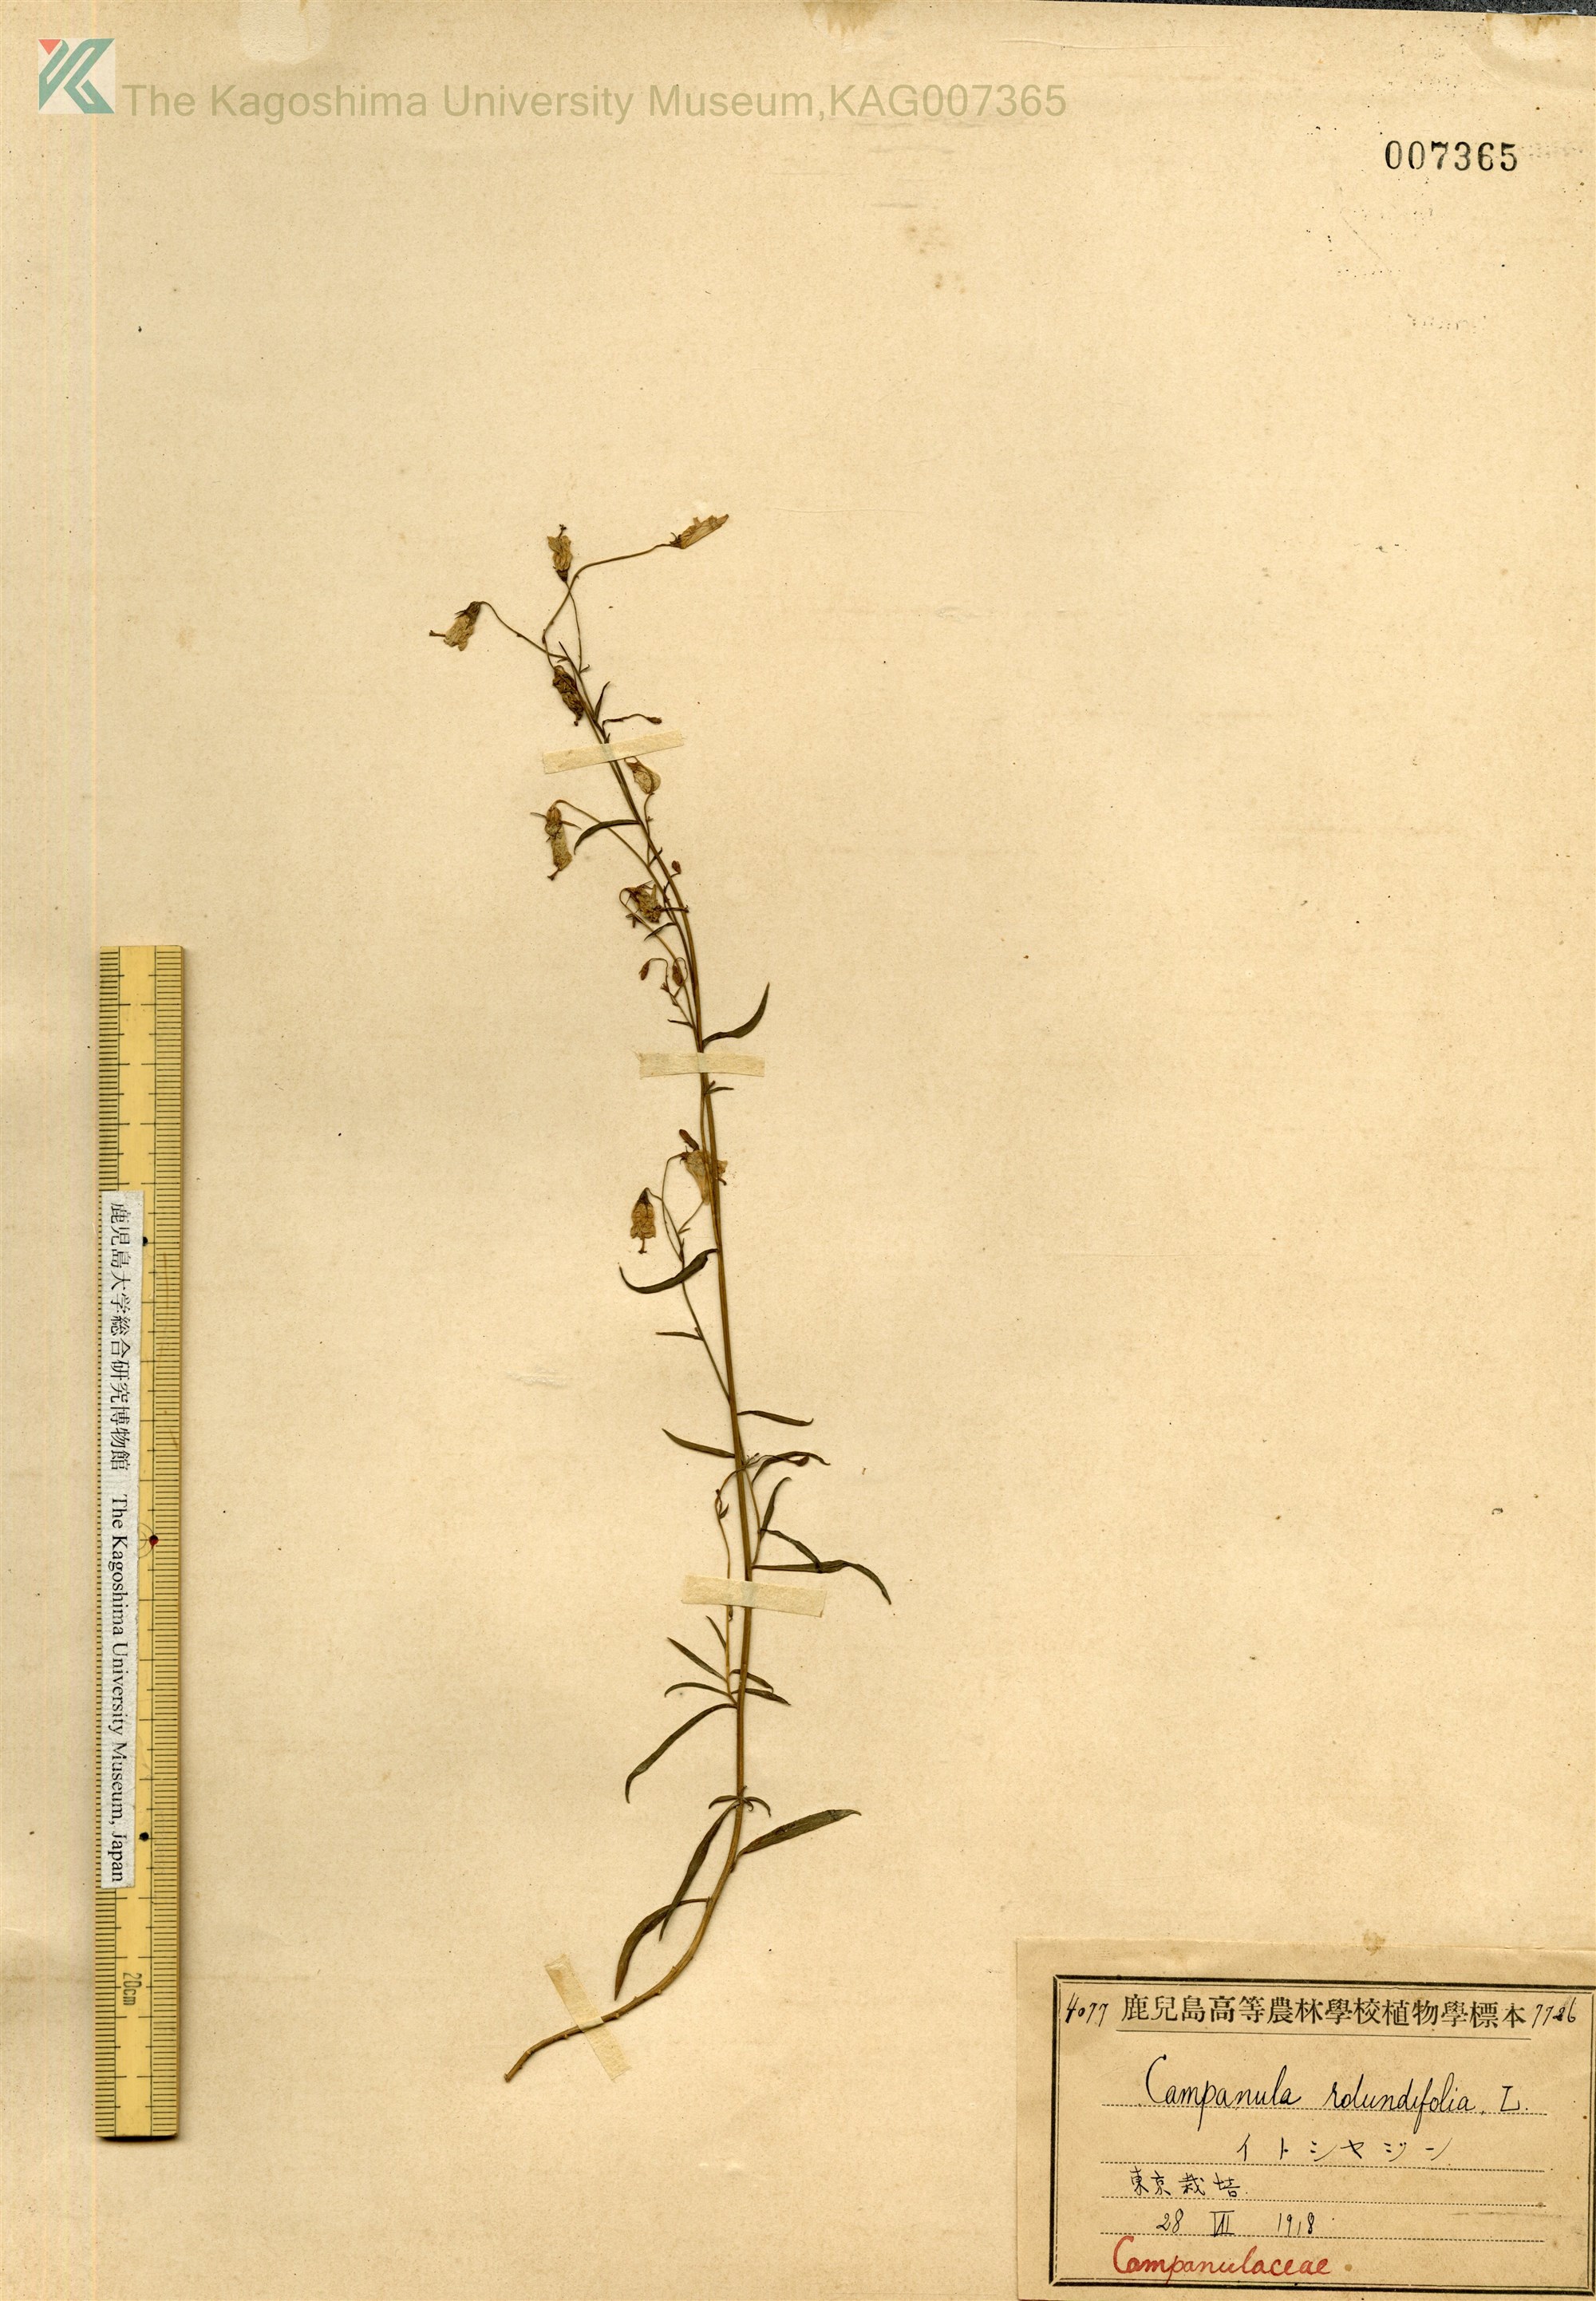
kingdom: Plantae
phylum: Tracheophyta
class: Magnoliopsida
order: Asterales
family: Campanulaceae
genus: Campanula
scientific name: Campanula rotundifolia
